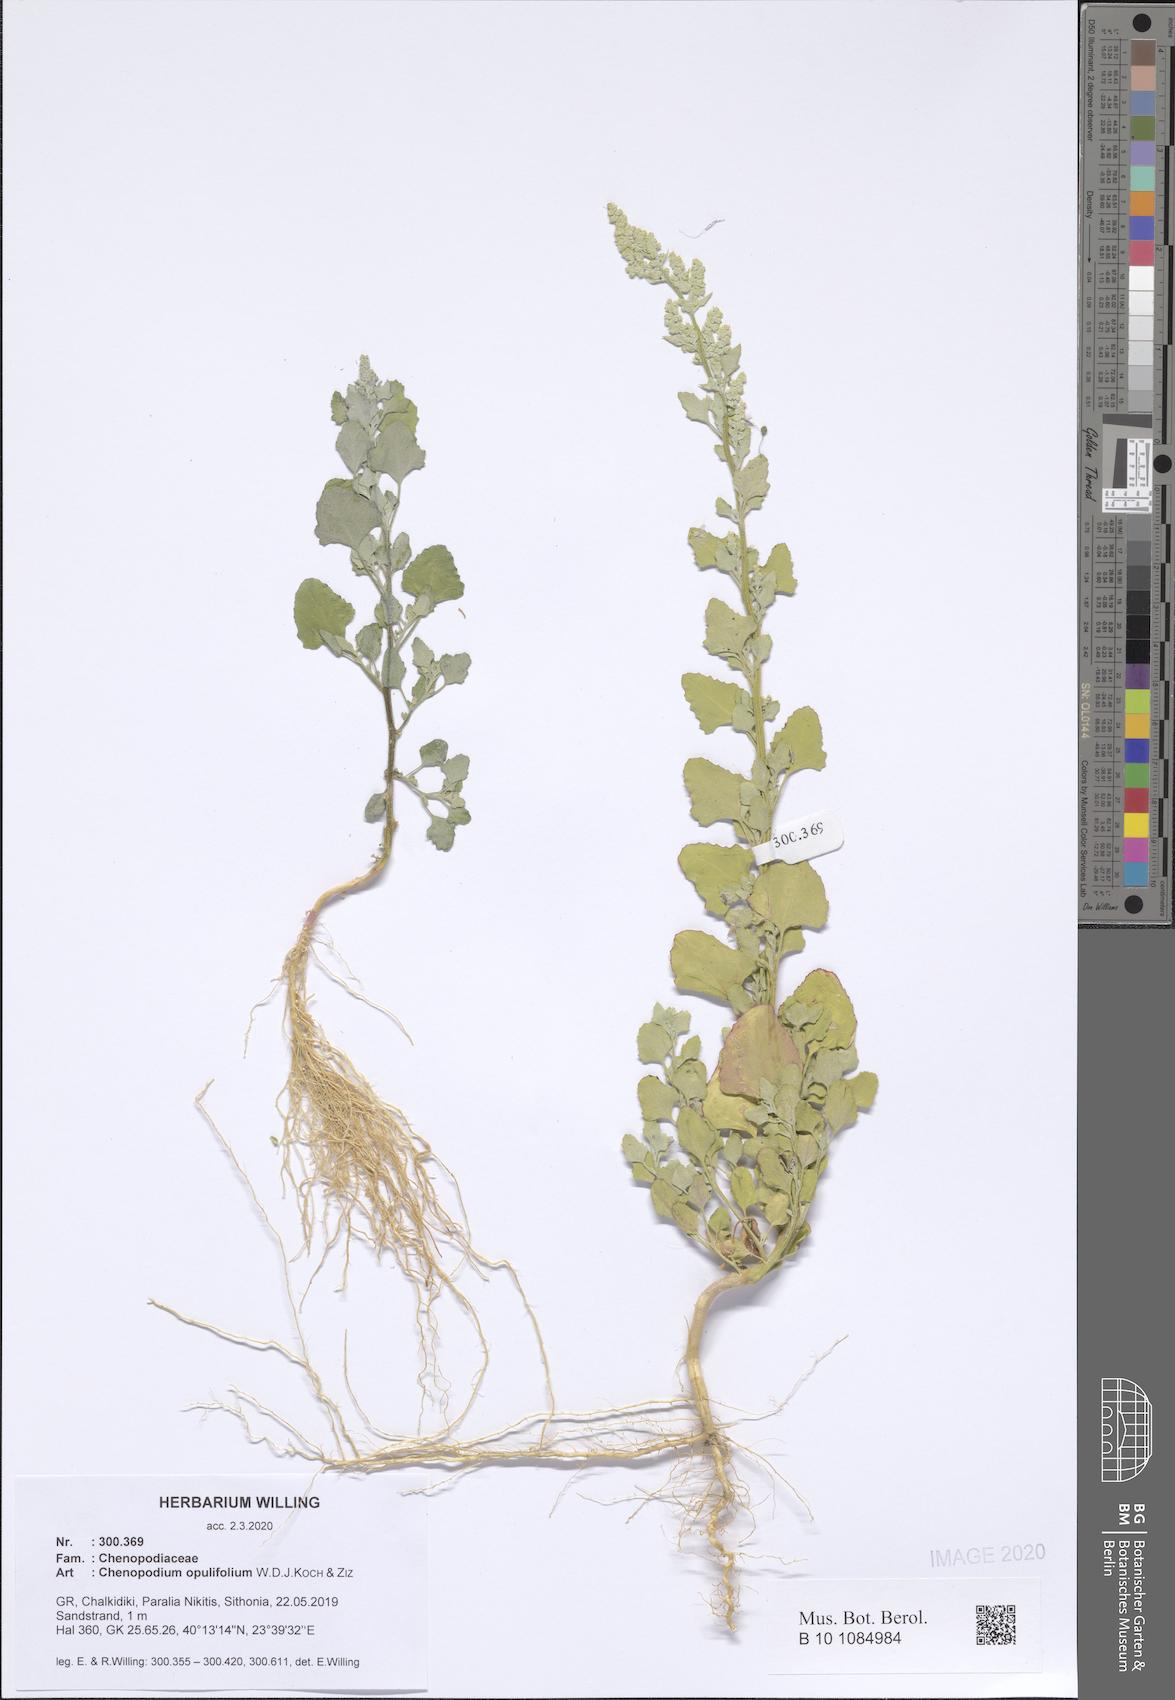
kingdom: Plantae
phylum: Tracheophyta
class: Magnoliopsida
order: Caryophyllales
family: Amaranthaceae
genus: Chenopodium
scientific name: Chenopodium opulifolium
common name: Grey goosefoot
